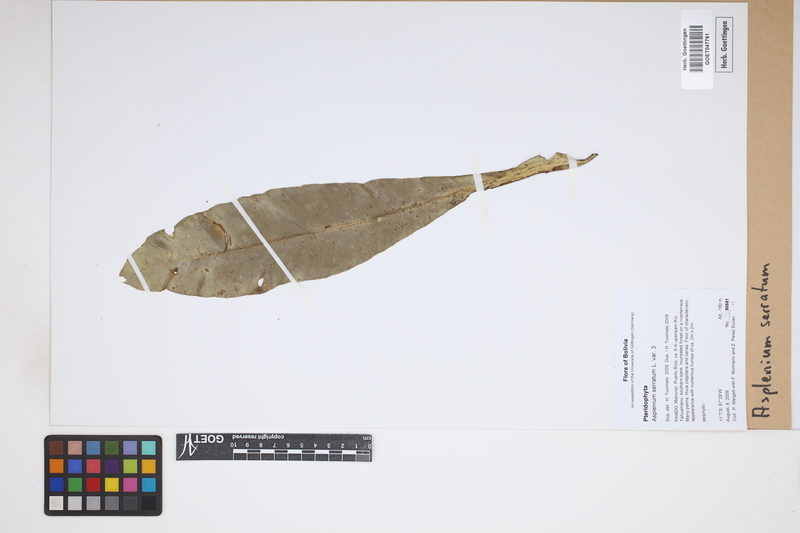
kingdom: Plantae
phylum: Tracheophyta
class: Polypodiopsida
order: Polypodiales
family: Aspleniaceae
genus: Asplenium
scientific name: Asplenium serratum
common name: Wild birdnest fern
